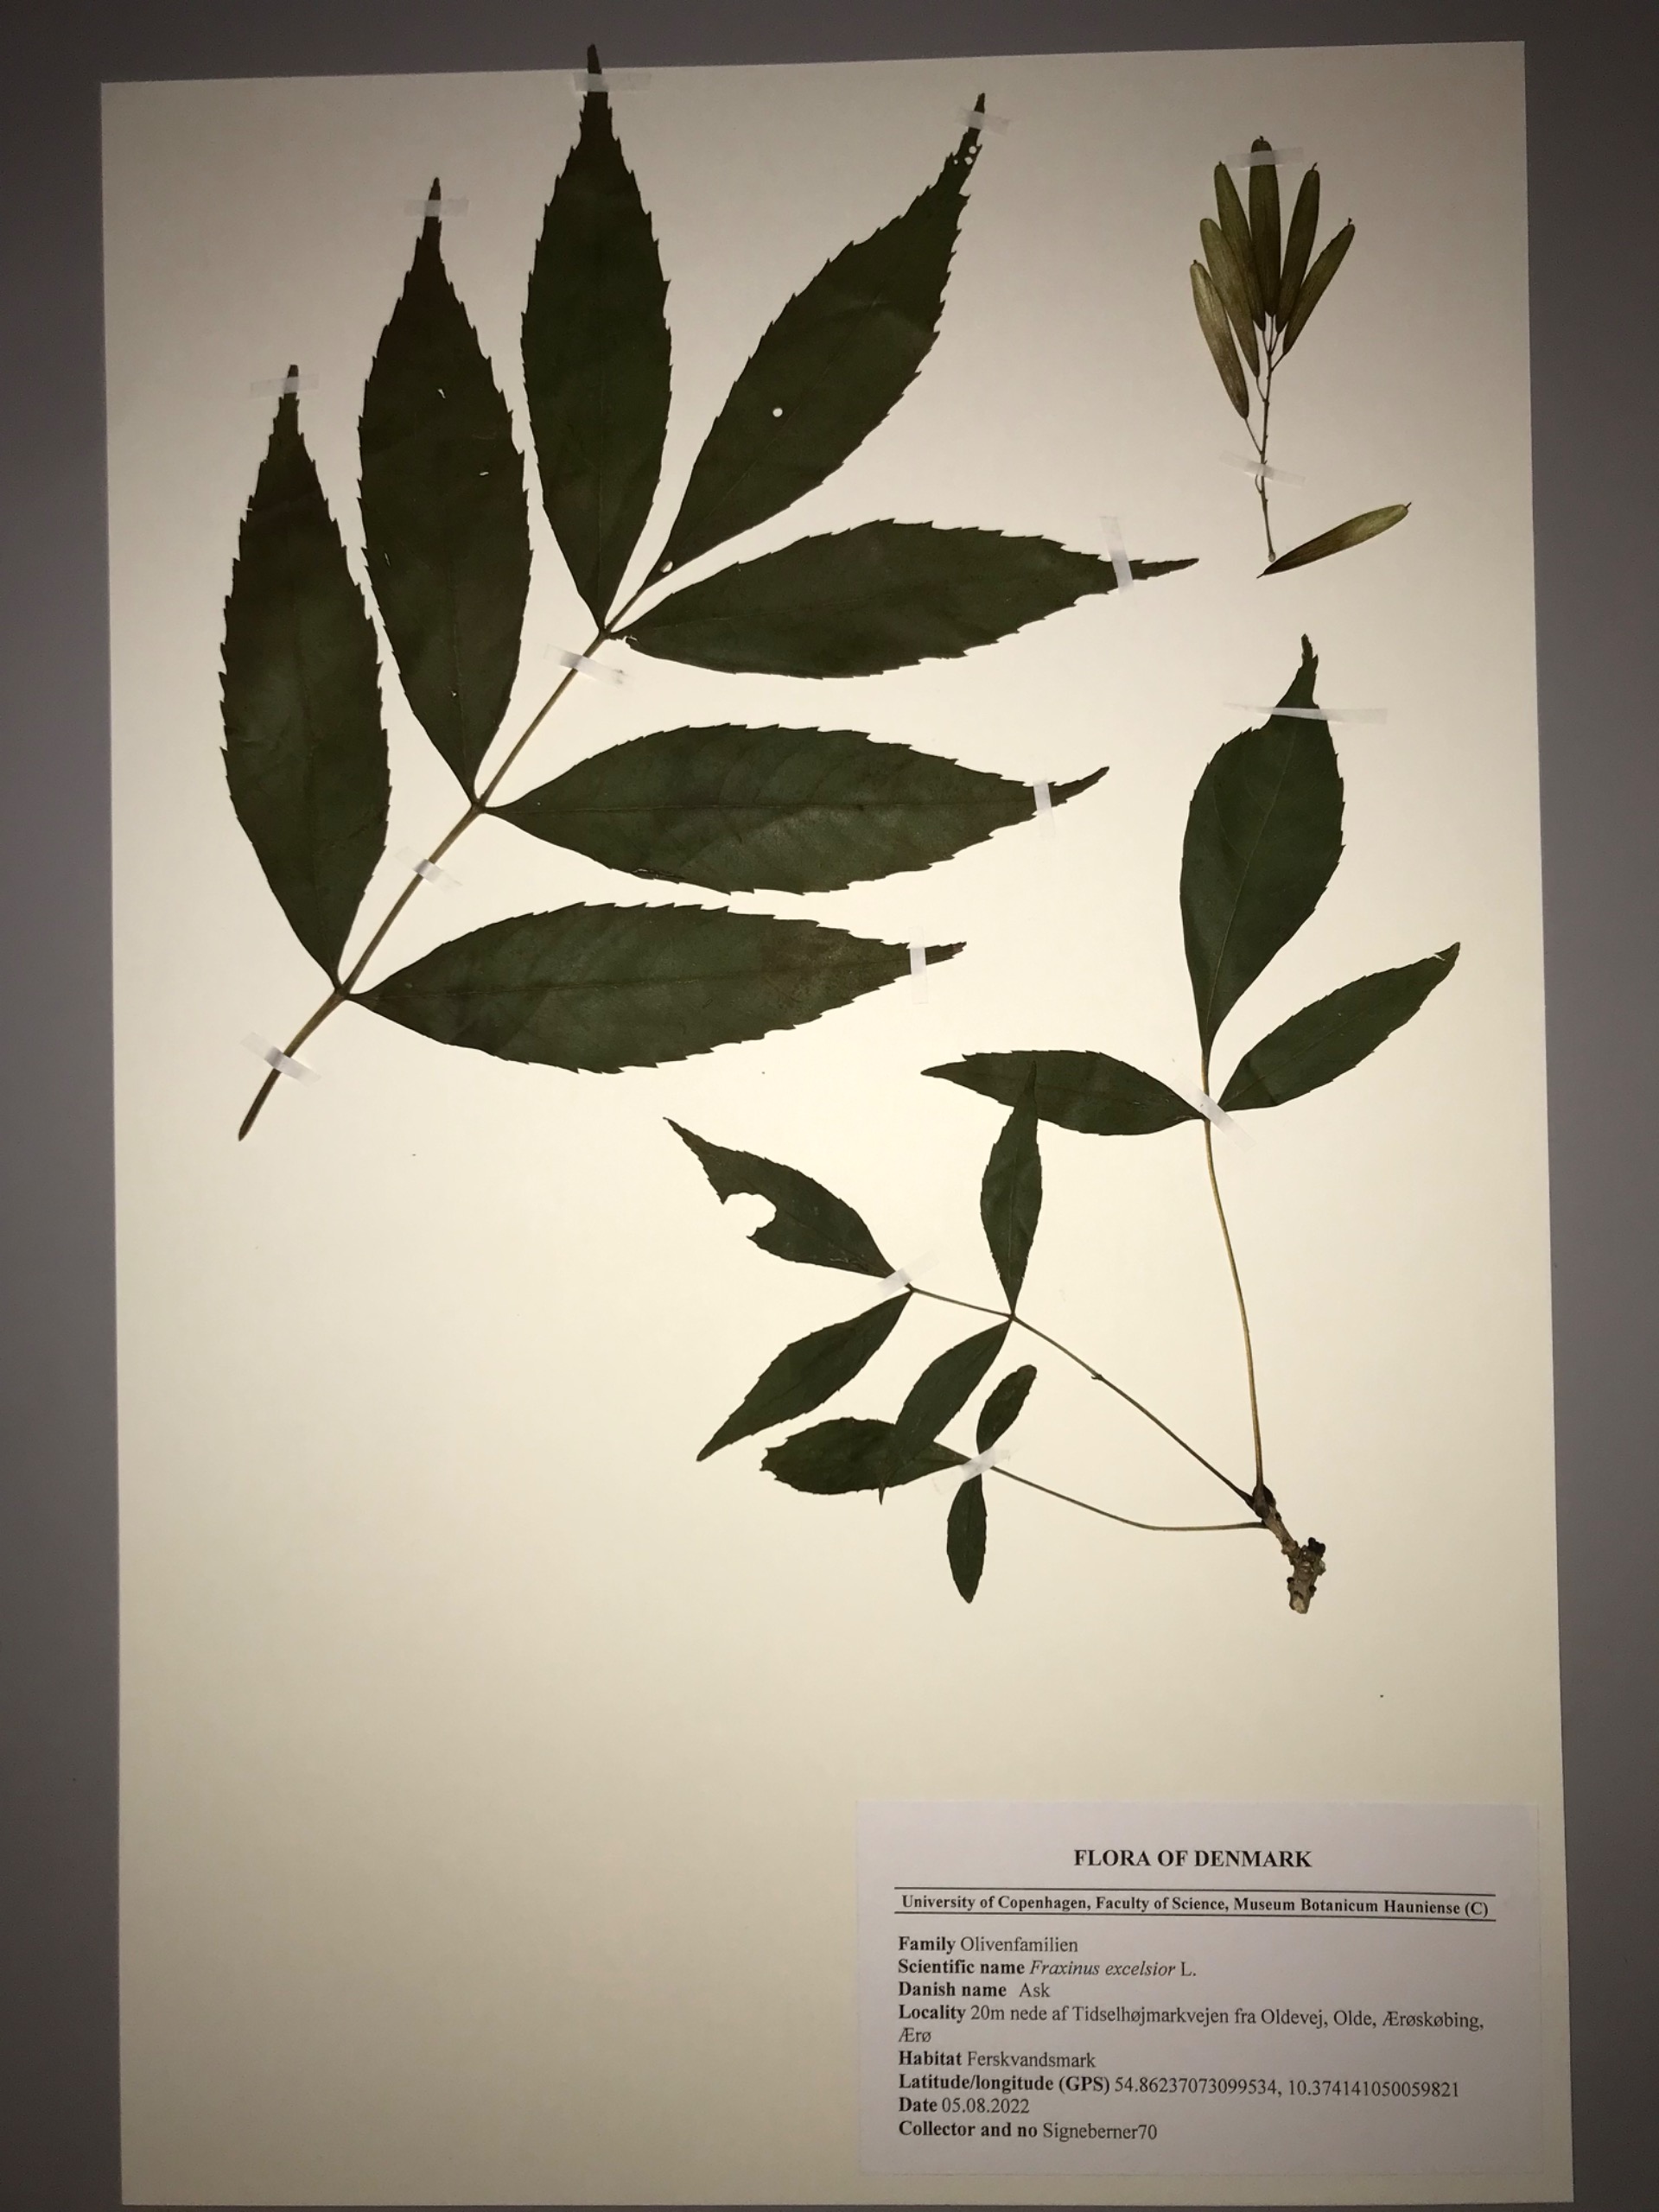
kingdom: Plantae
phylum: Tracheophyta
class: Magnoliopsida
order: Lamiales
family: Oleaceae
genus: Fraxinus
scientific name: Fraxinus excelsior
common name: Ask
